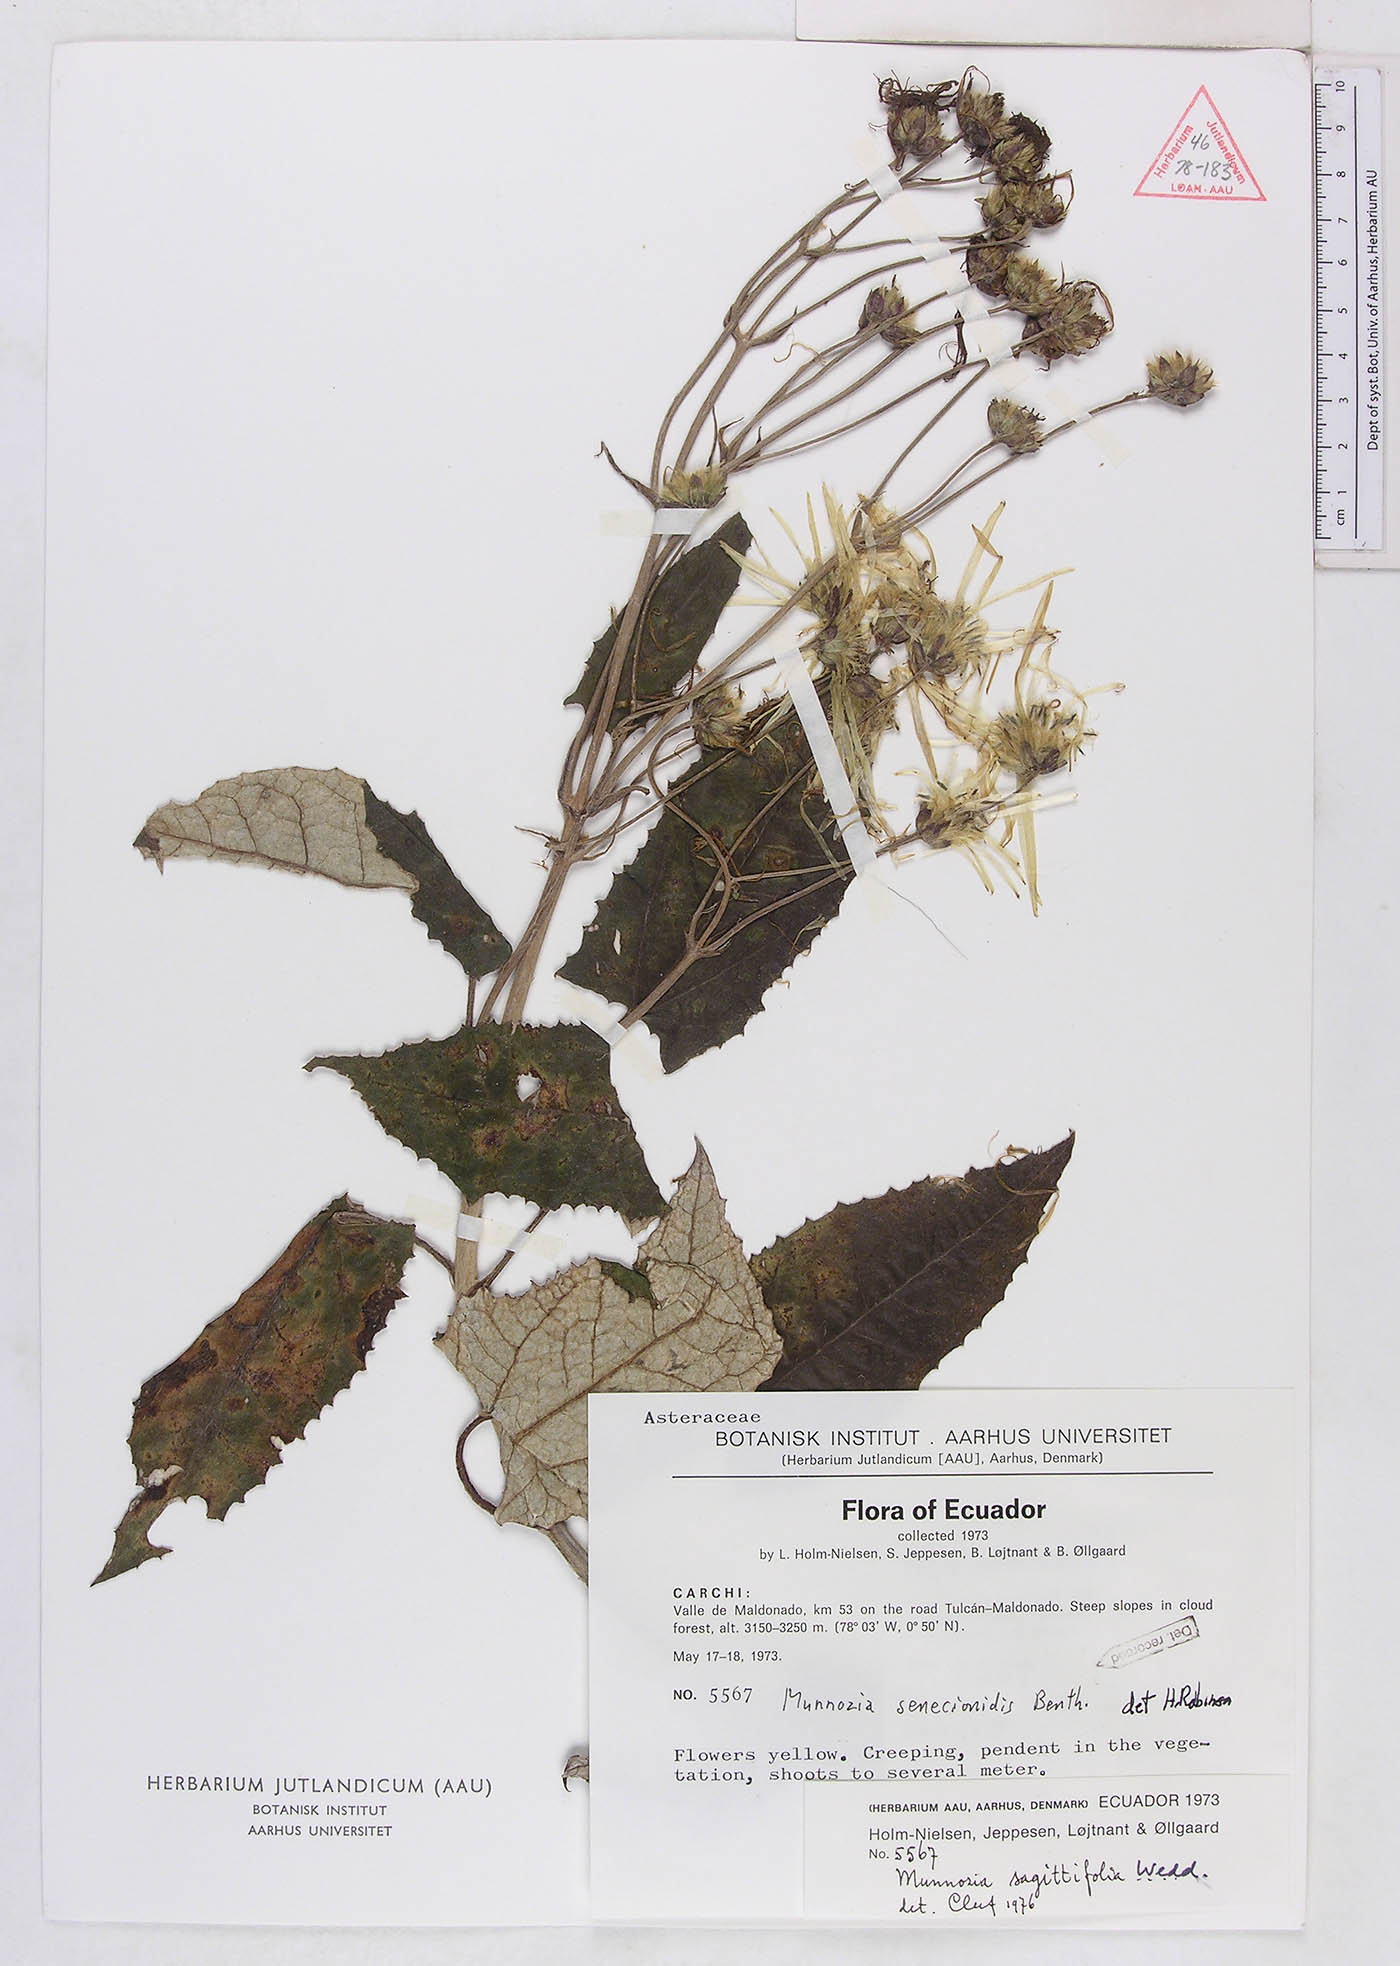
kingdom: Plantae
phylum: Tracheophyta
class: Magnoliopsida
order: Asterales
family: Asteraceae
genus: Munnozia
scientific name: Munnozia senecionidis
